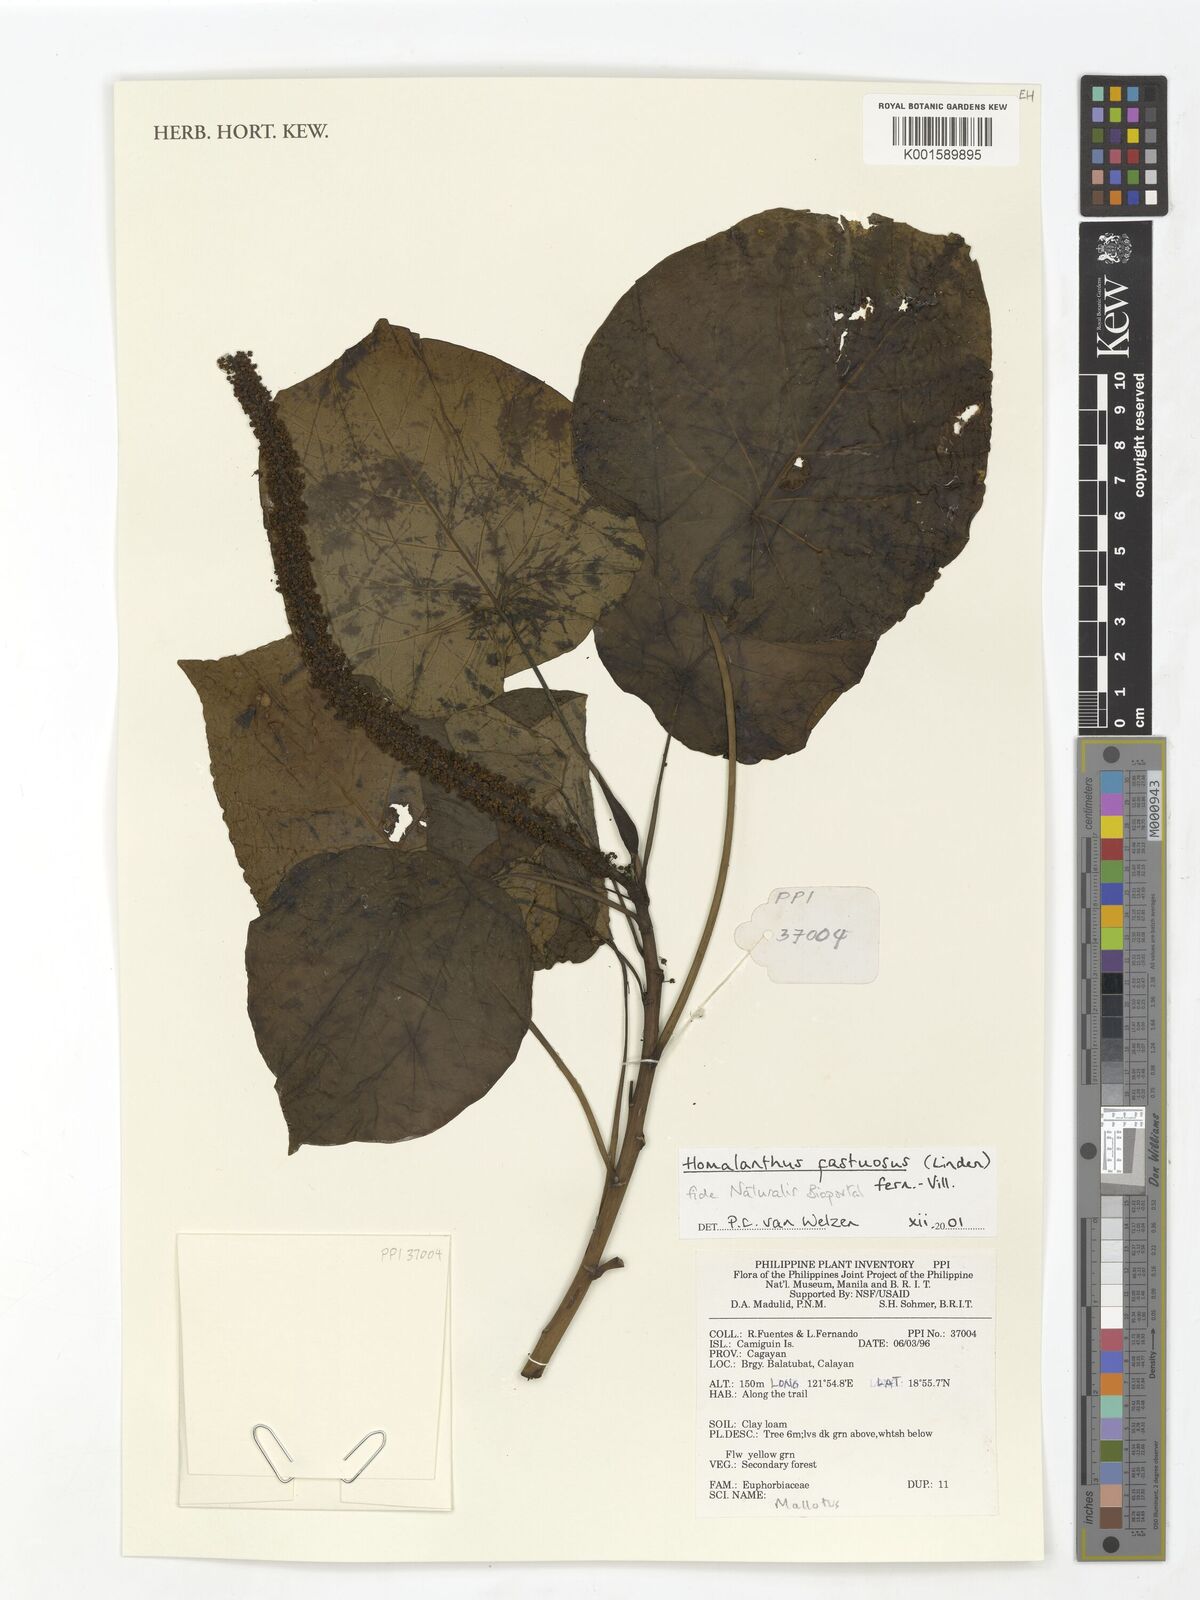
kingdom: Plantae
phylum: Tracheophyta
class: Magnoliopsida
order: Malpighiales
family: Euphorbiaceae
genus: Homalanthus
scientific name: Homalanthus fastuosus
